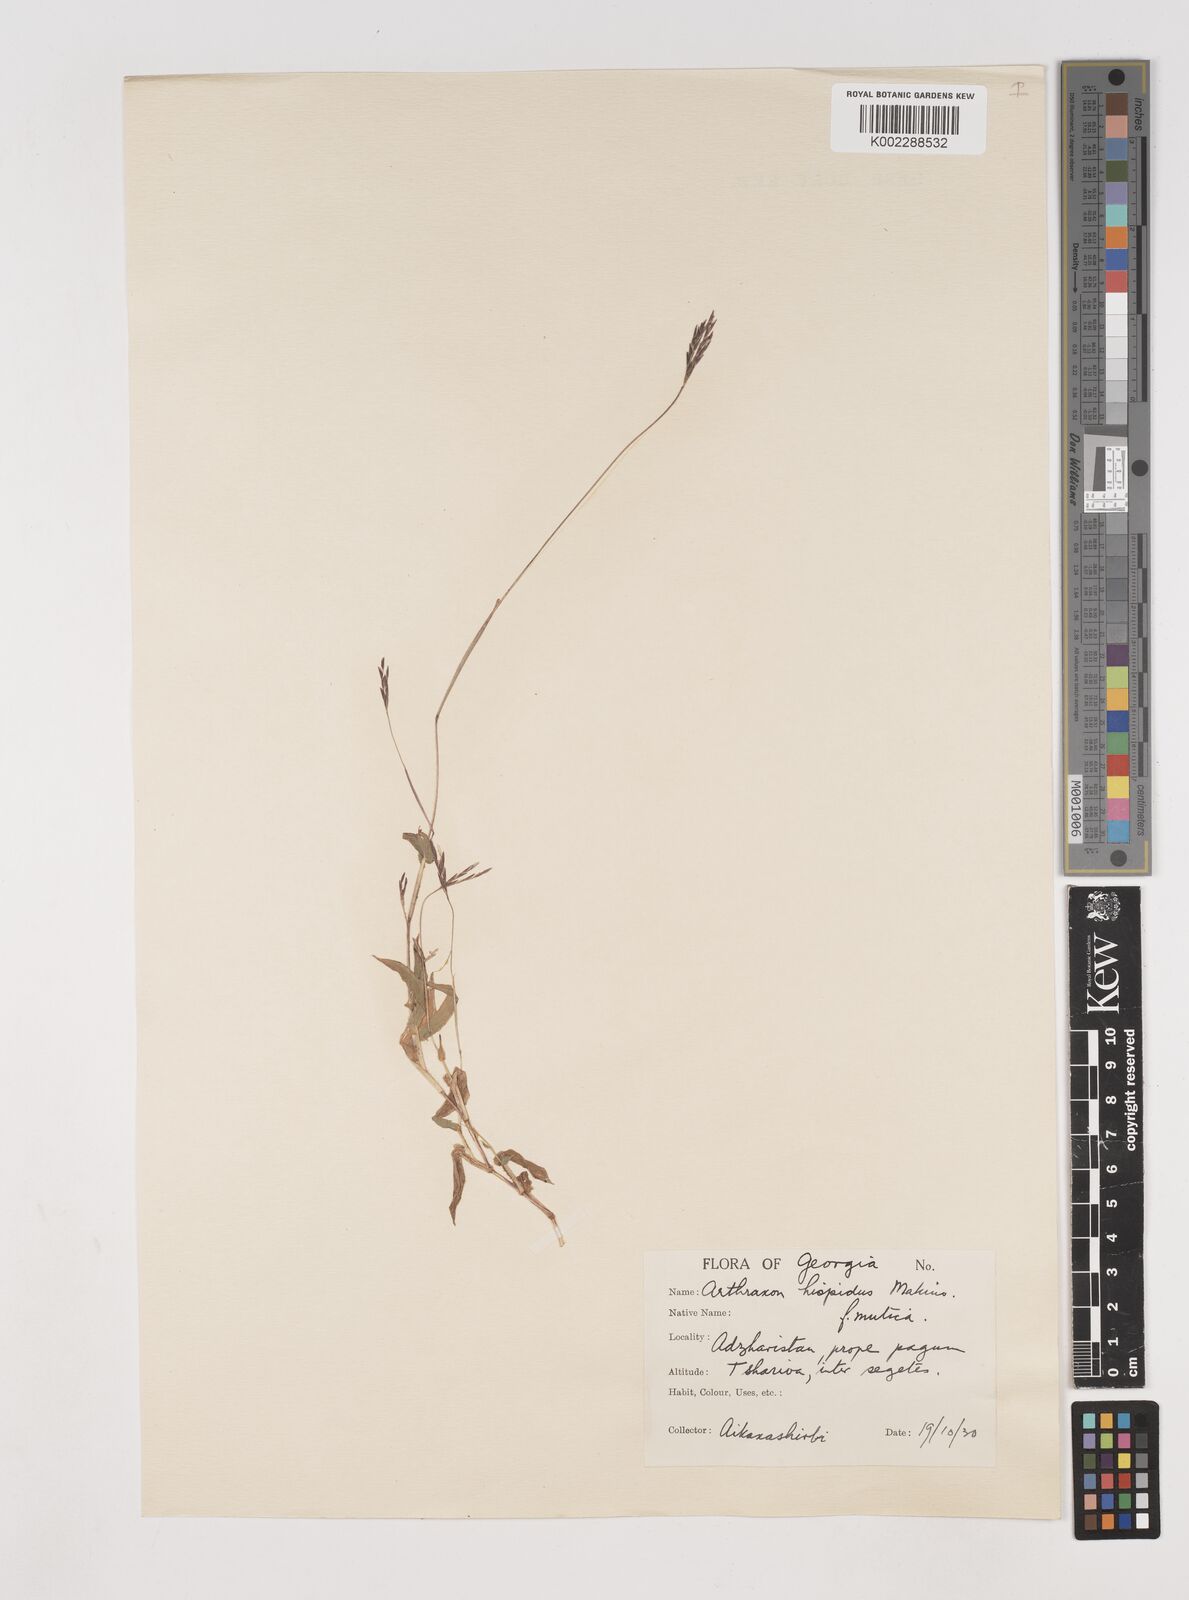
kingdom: Plantae
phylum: Tracheophyta
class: Liliopsida
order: Poales
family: Poaceae
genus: Arthraxon
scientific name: Arthraxon hispidus
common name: Small carpgrass
